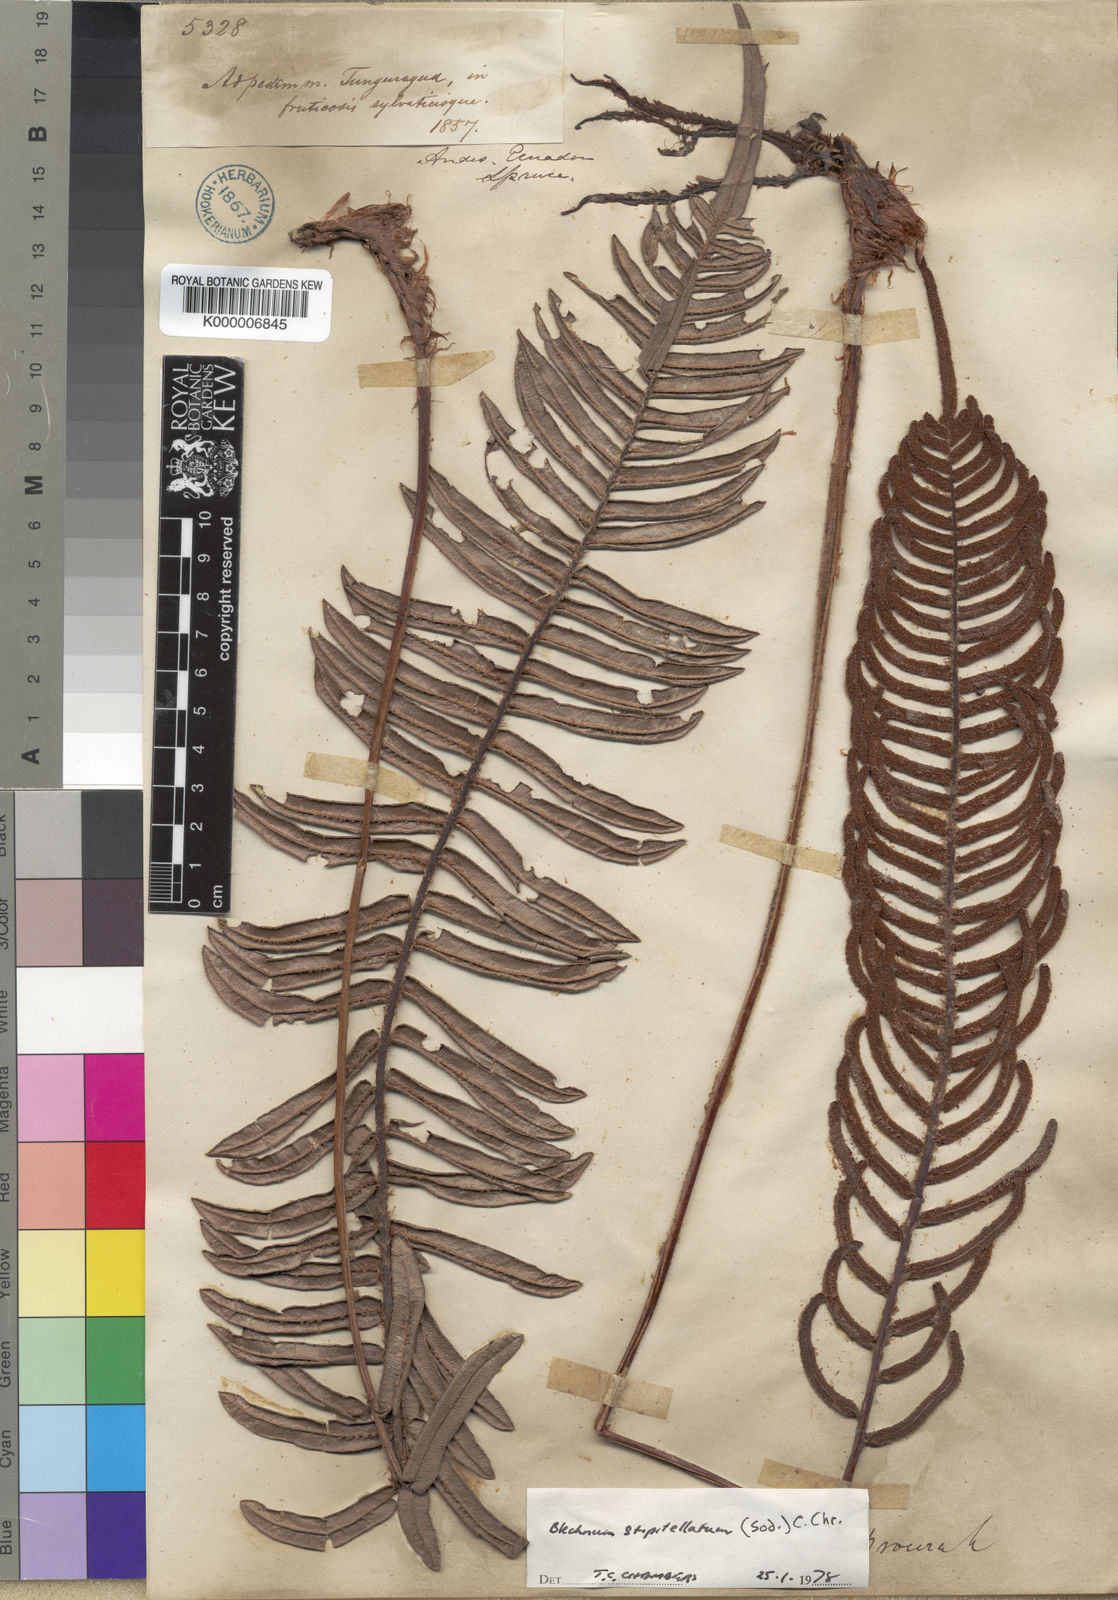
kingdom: Plantae
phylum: Tracheophyta
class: Polypodiopsida
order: Polypodiales
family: Blechnaceae
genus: Parablechnum
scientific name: Parablechnum stipitellatum
